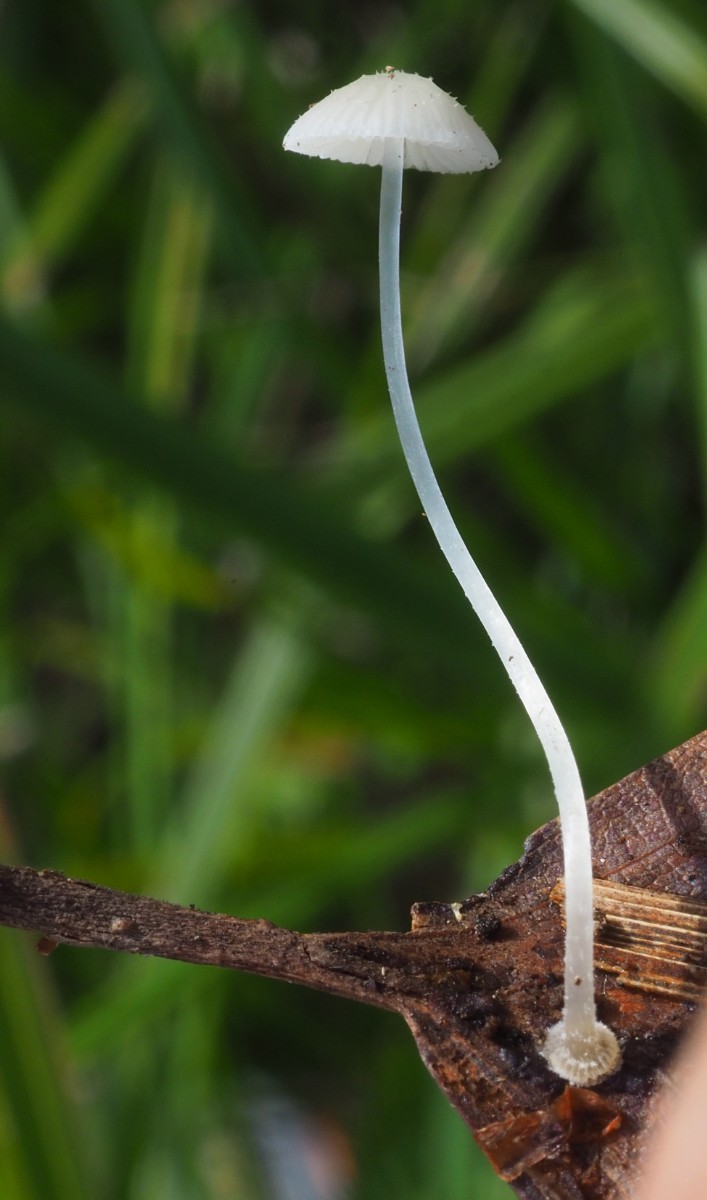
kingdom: Fungi
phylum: Basidiomycota
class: Agaricomycetes
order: Agaricales
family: Mycenaceae
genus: Mycena
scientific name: Mycena stylobates
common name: fureskivet huesvamp
